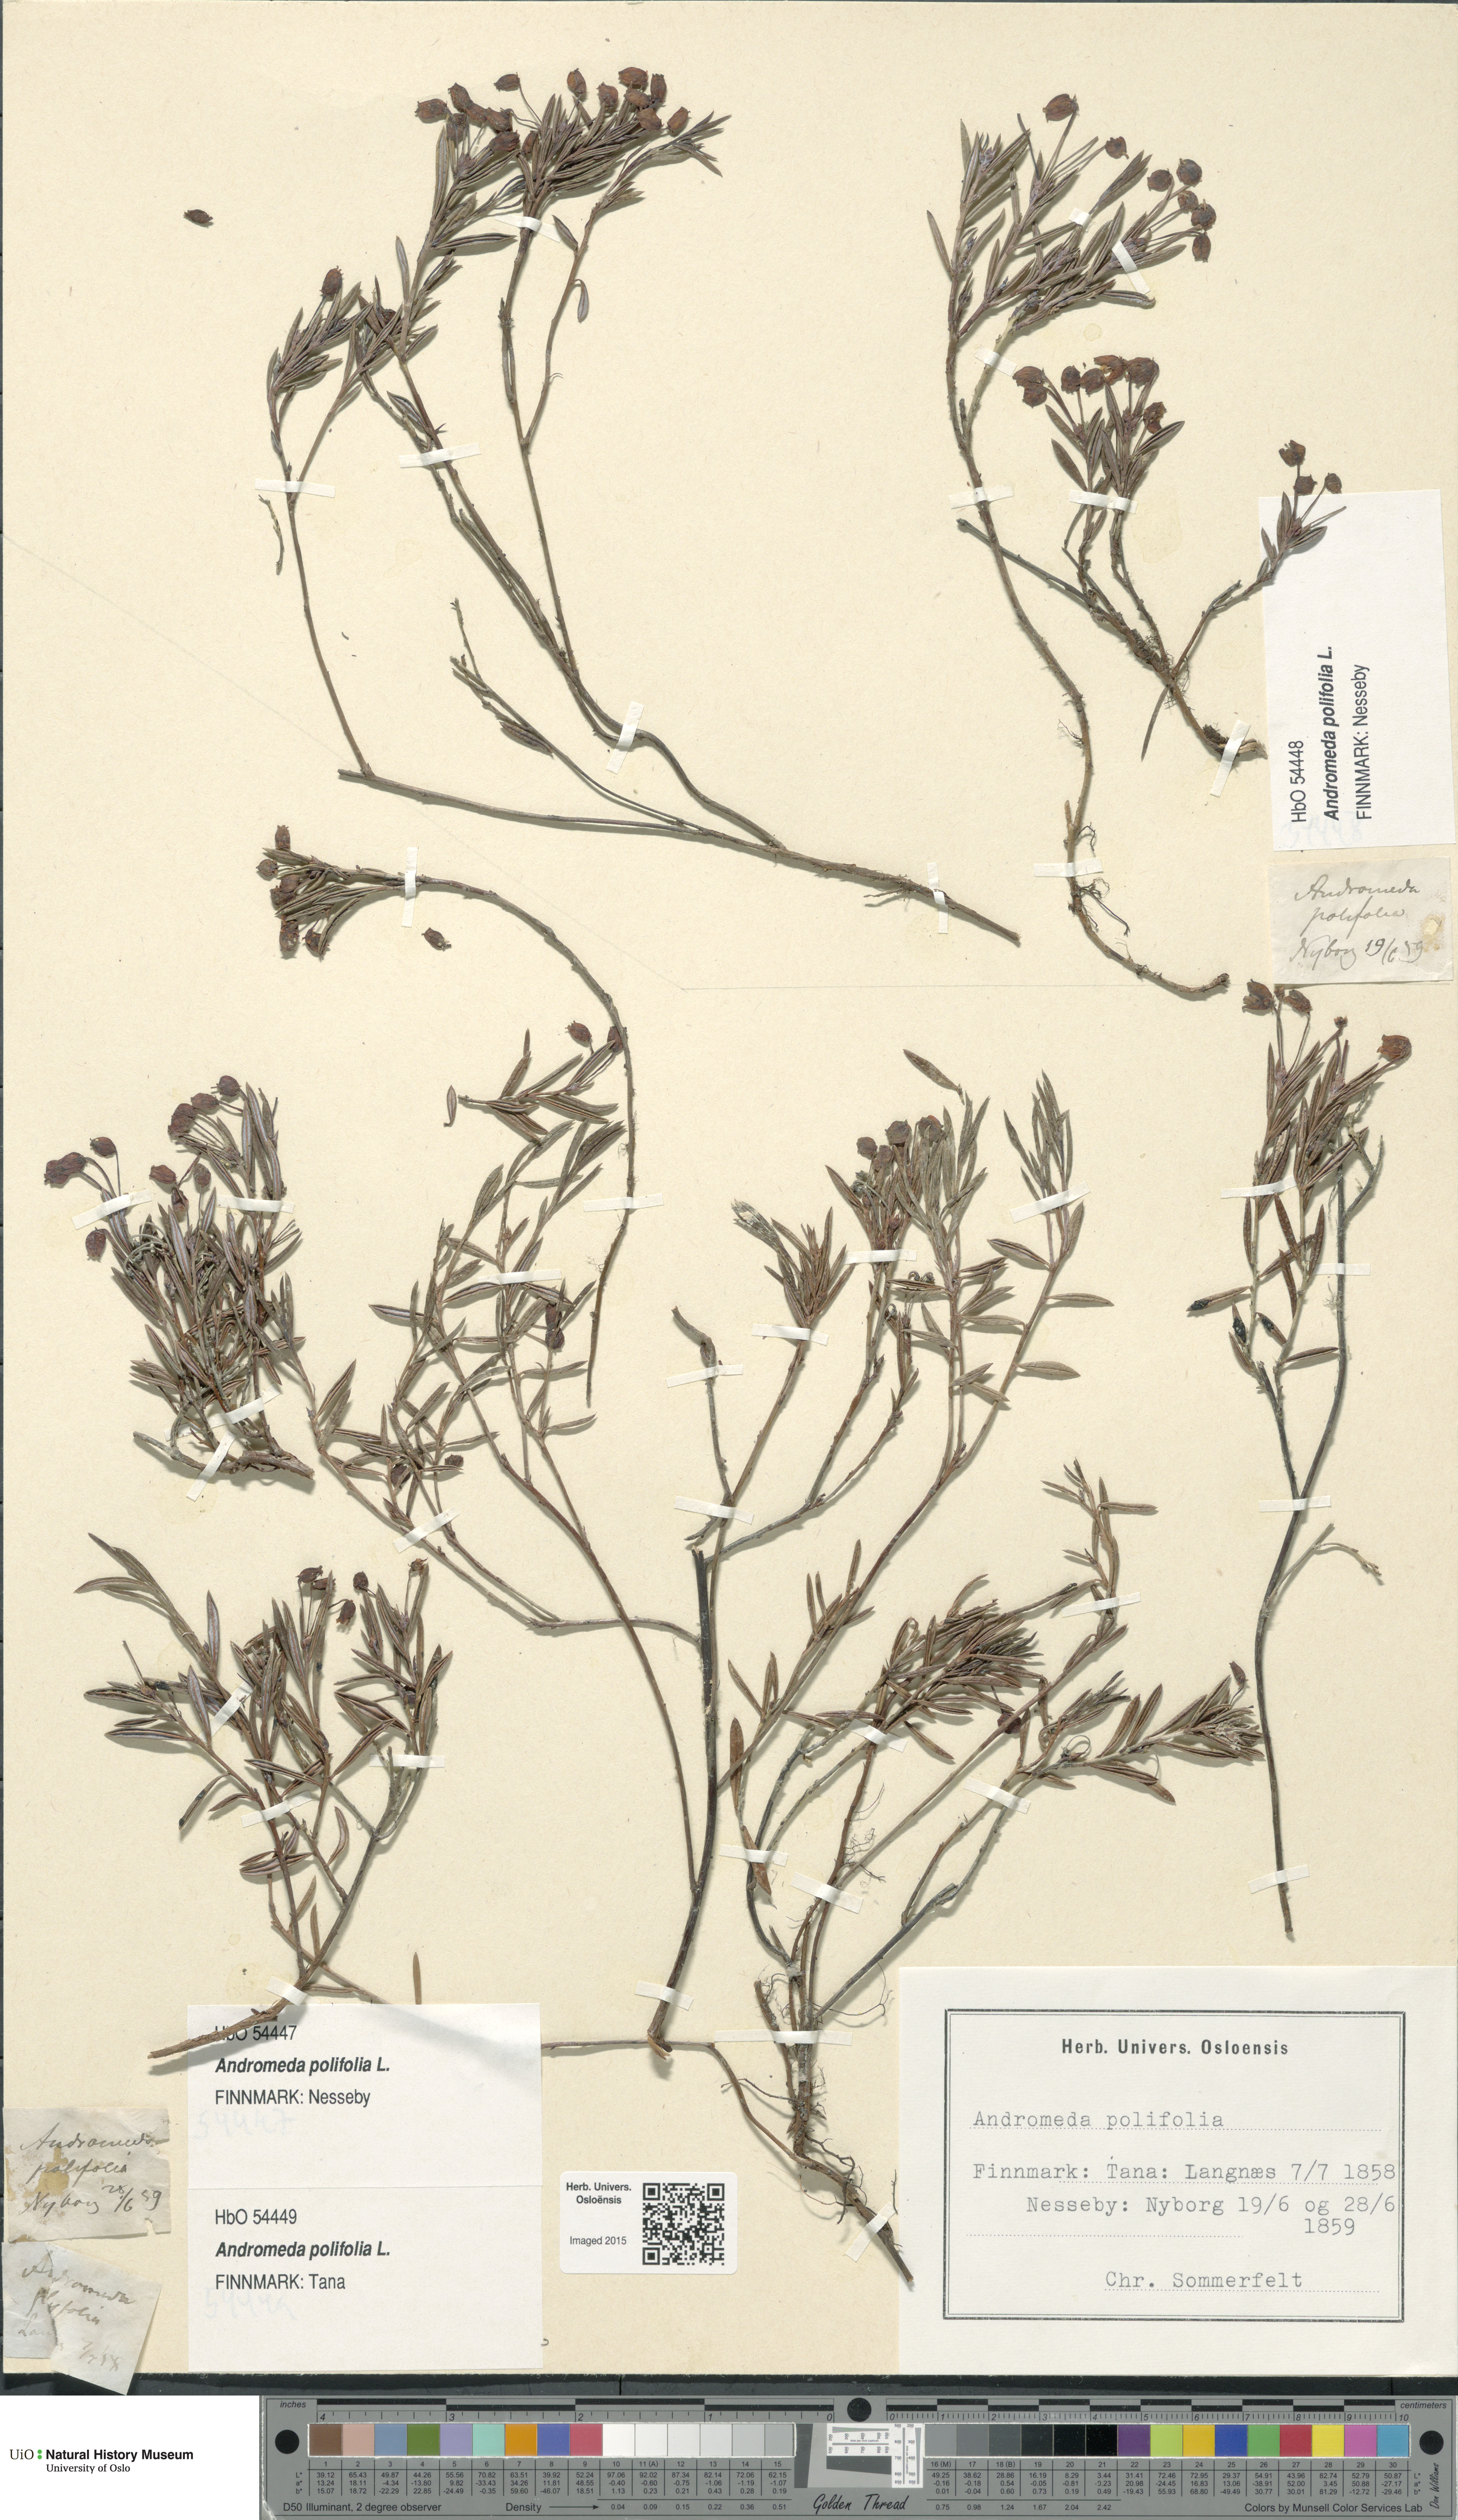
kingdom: Plantae
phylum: Tracheophyta
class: Magnoliopsida
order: Ericales
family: Ericaceae
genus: Andromeda
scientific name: Andromeda polifolia
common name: Bog-rosemary
